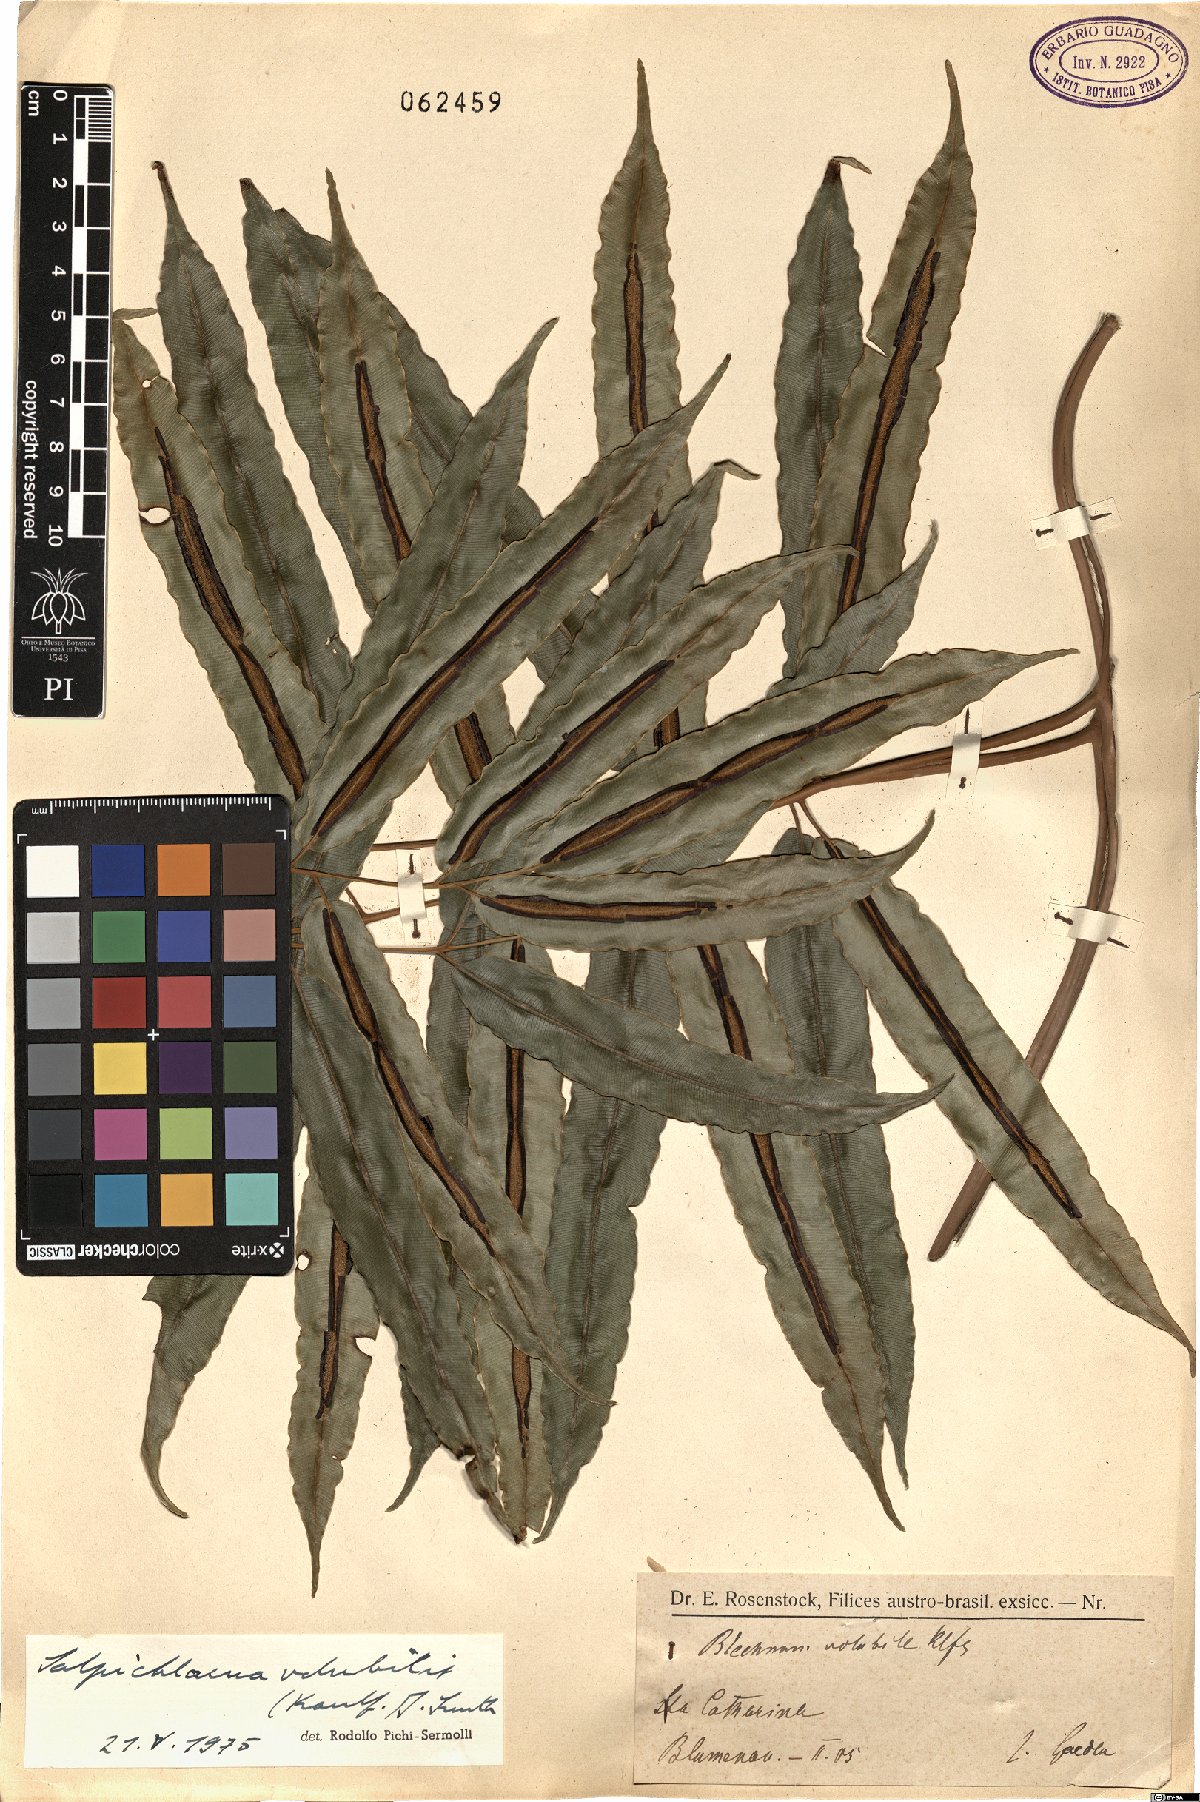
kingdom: Plantae
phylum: Tracheophyta
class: Polypodiopsida
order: Polypodiales
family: Blechnaceae
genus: Salpichlaena
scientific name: Salpichlaena volubilis
